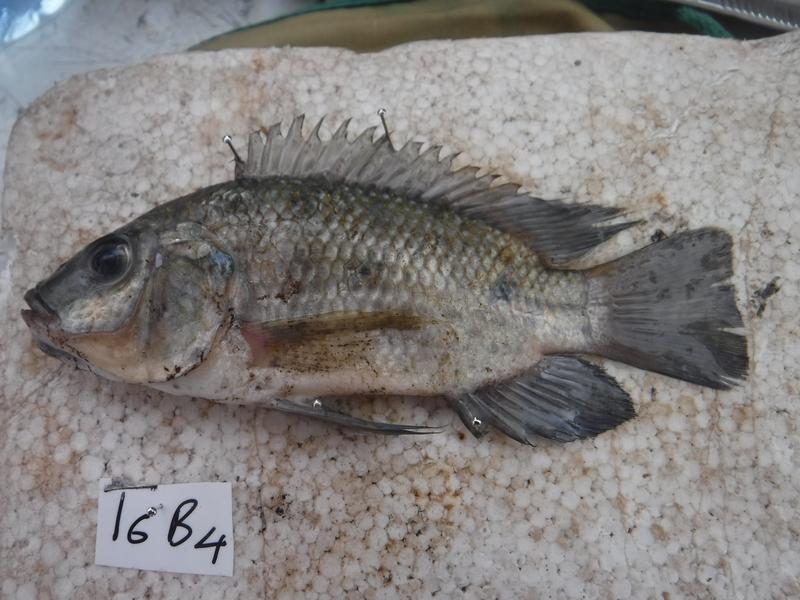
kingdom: Animalia
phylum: Chordata
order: Perciformes
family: Cichlidae
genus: Oreochromis
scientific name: Oreochromis urolepis
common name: Wami tilapia
